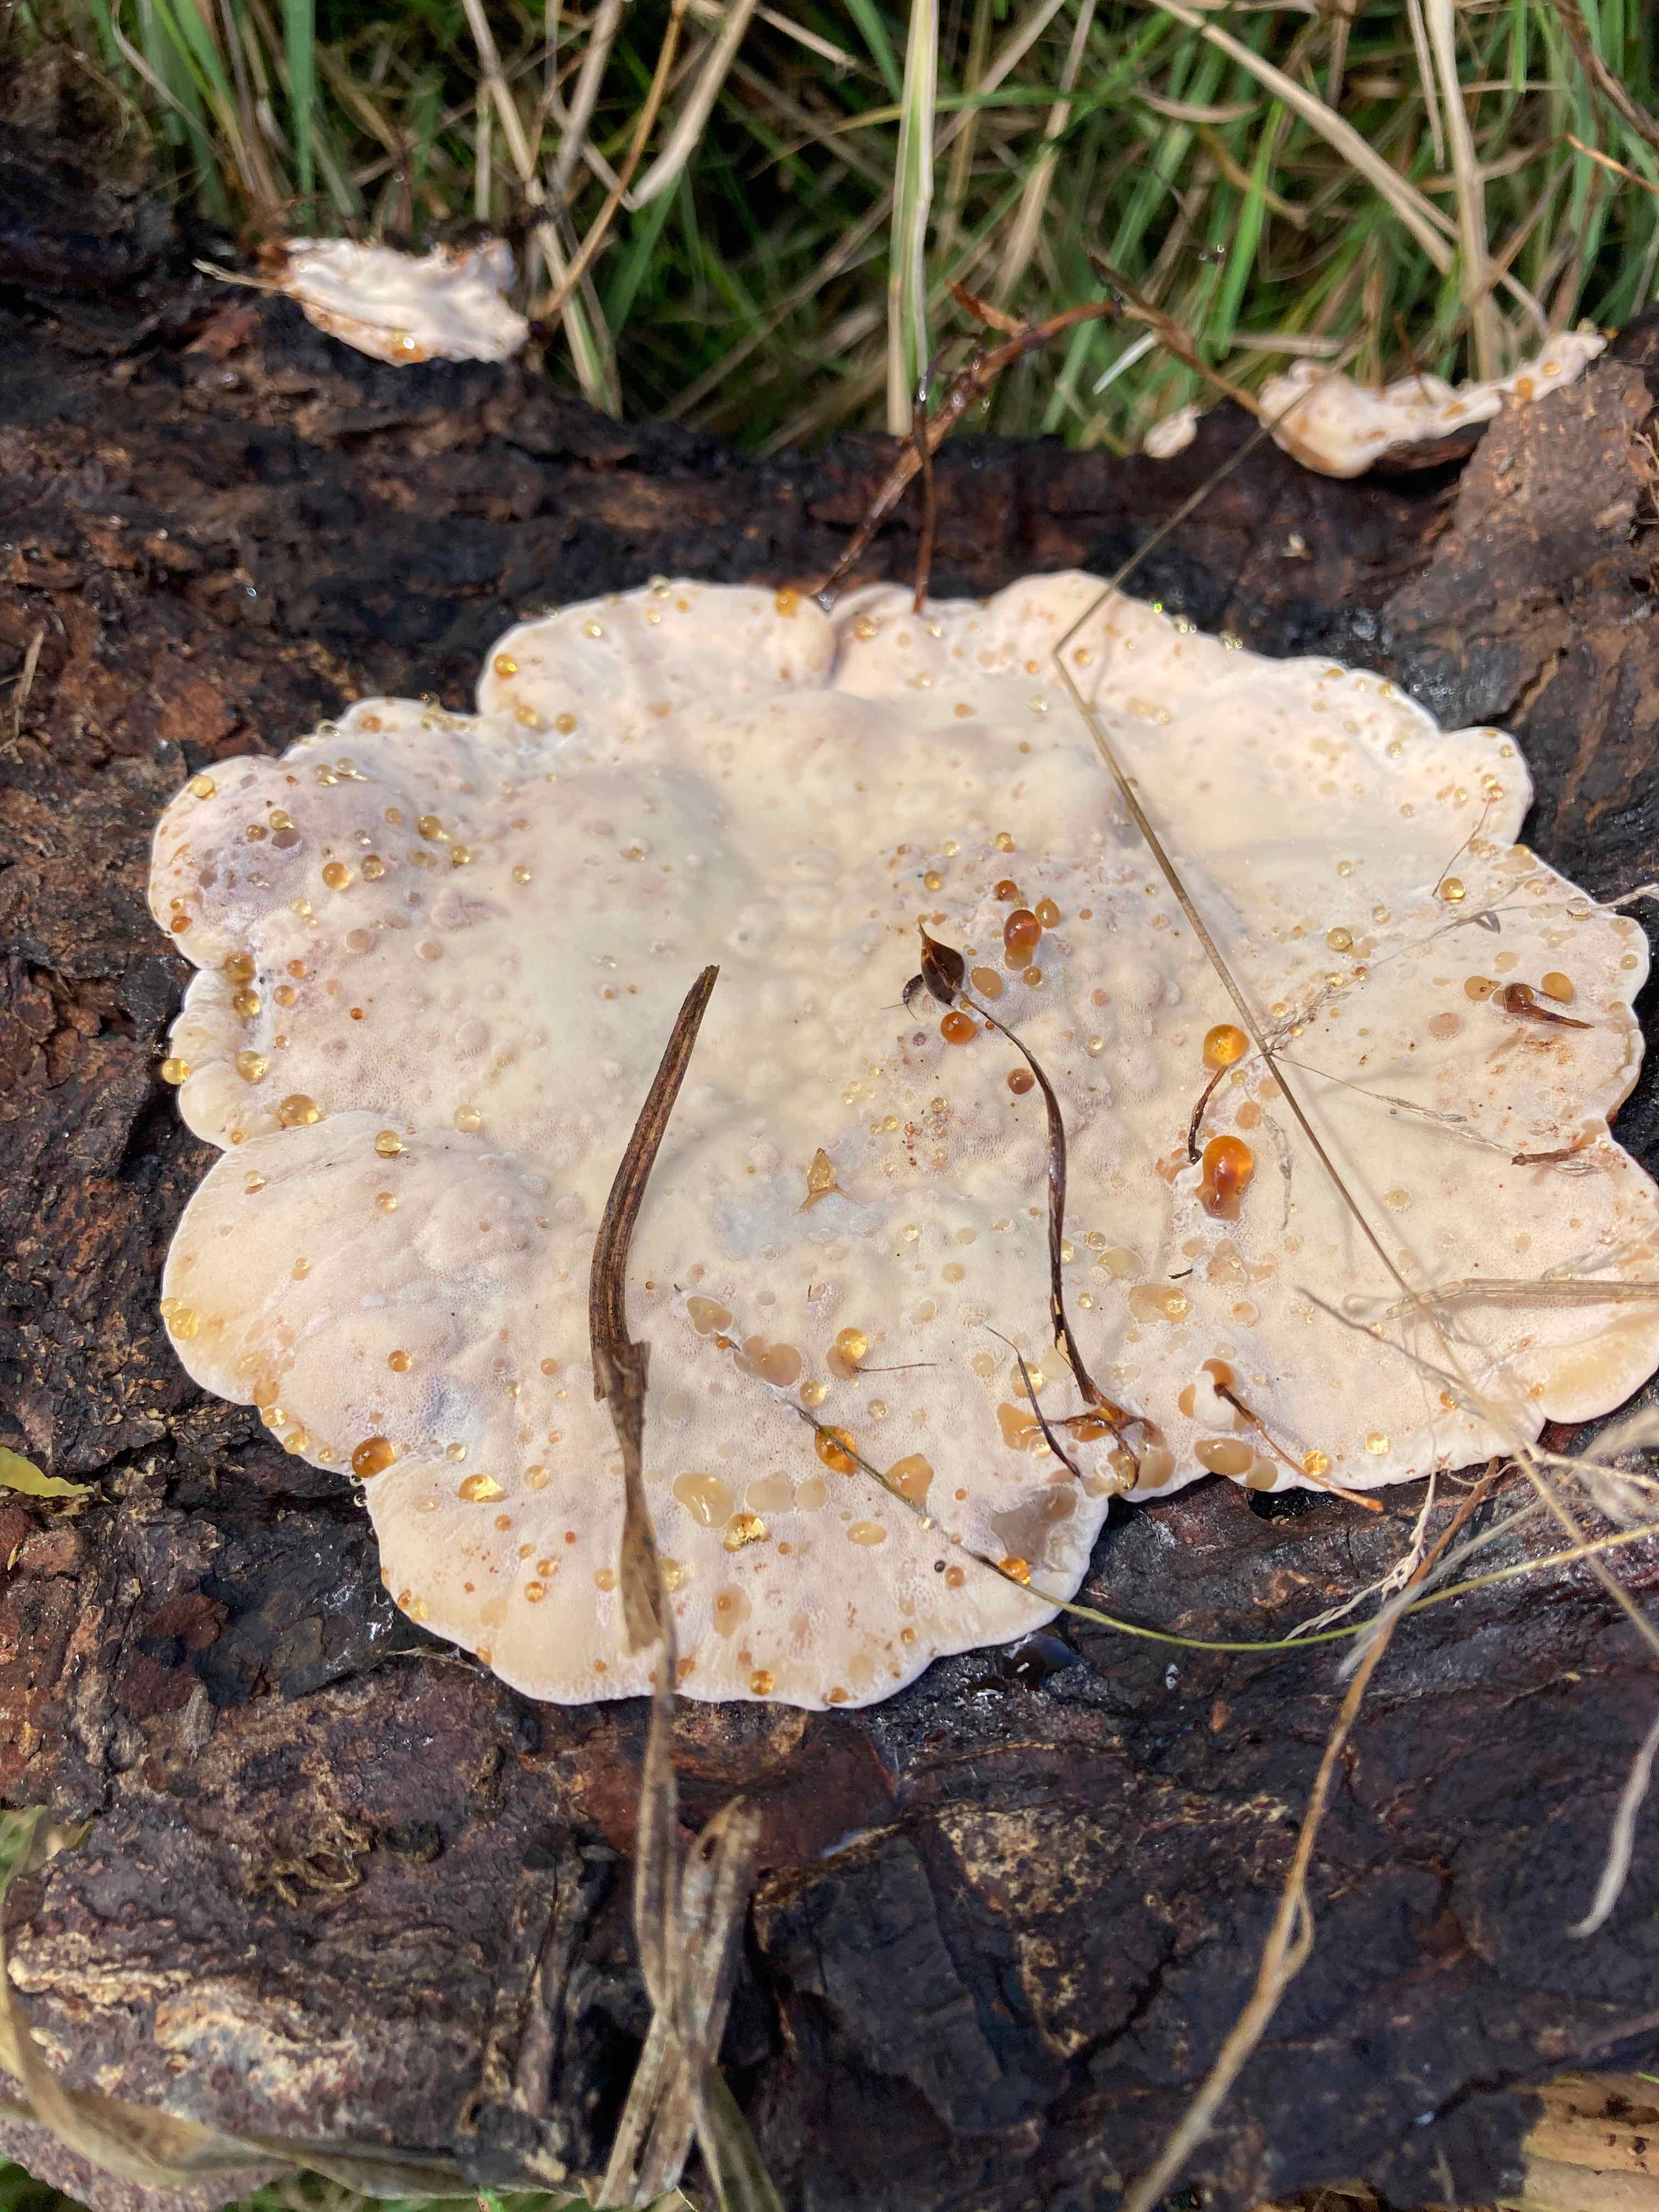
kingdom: Fungi
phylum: Basidiomycota
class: Agaricomycetes
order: Polyporales
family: Ischnodermataceae
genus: Ischnoderma
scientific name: Ischnoderma resinosum
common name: løv-tjæreporesvamp
